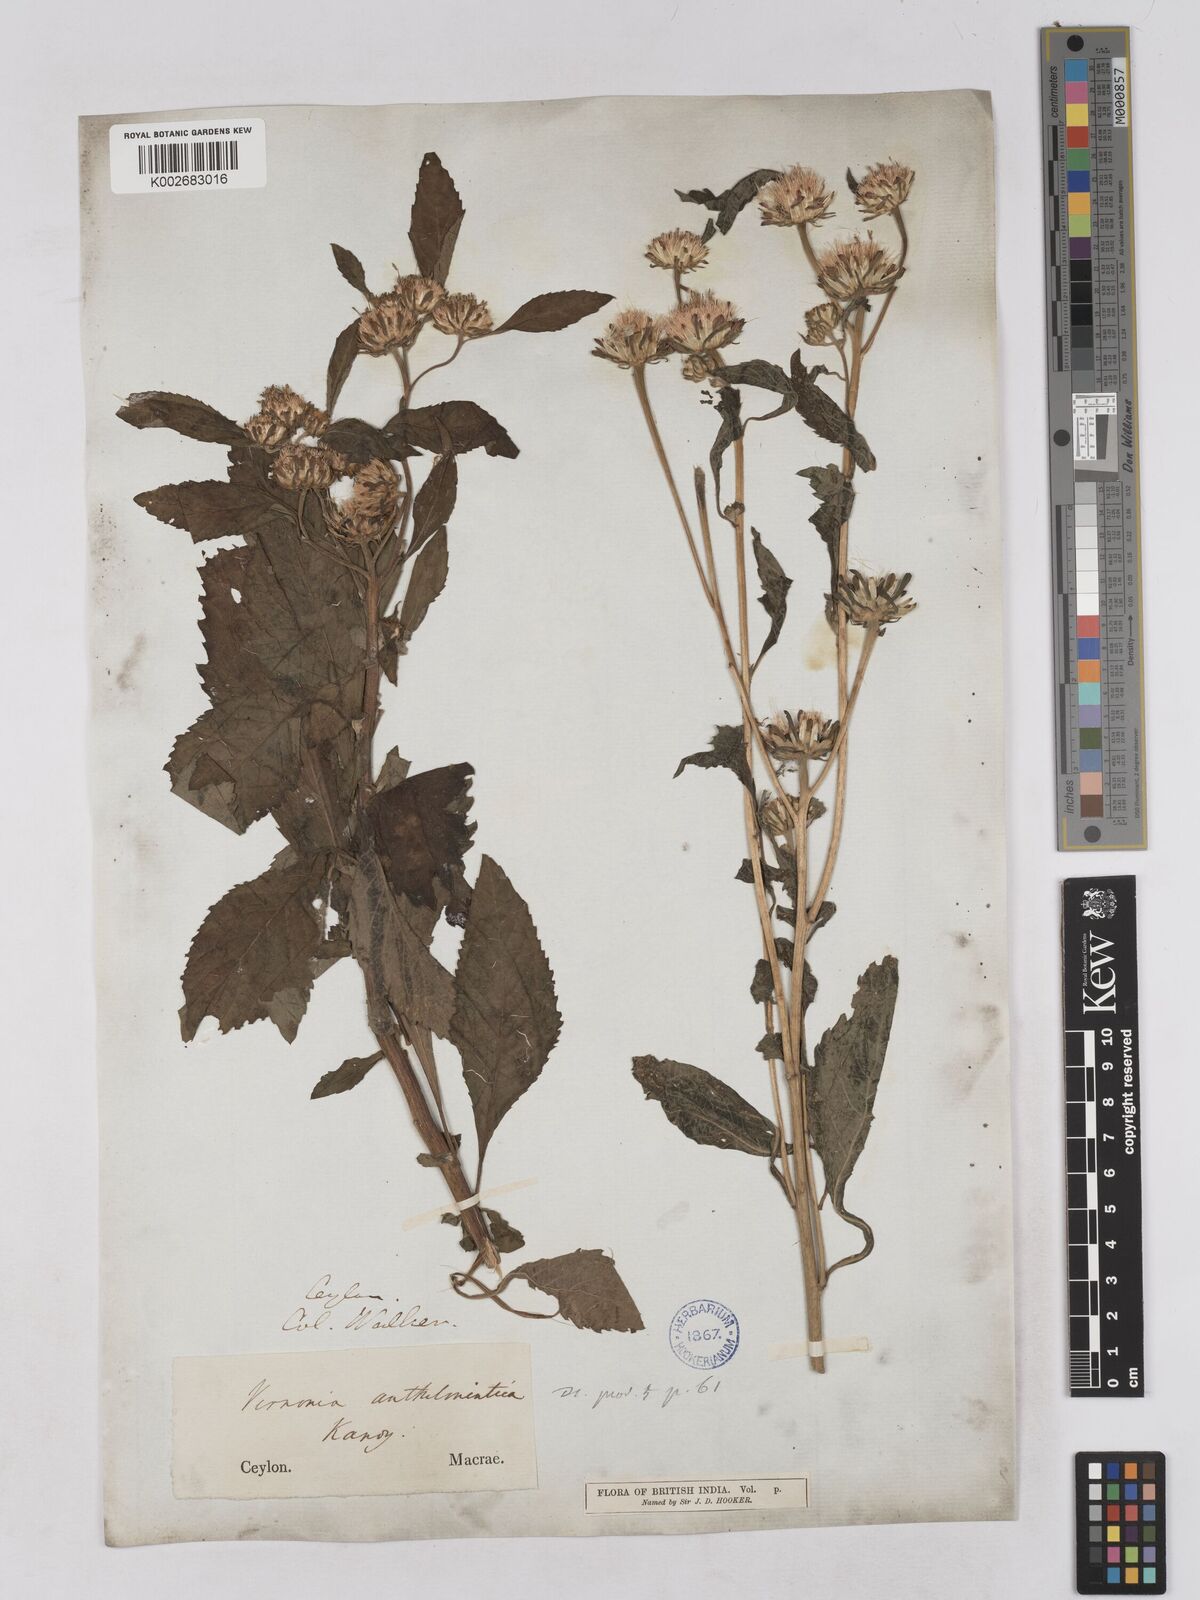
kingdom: Plantae
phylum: Tracheophyta
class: Magnoliopsida
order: Asterales
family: Asteraceae
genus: Baccharoides
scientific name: Baccharoides anthelmintica
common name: Kinka-oil
